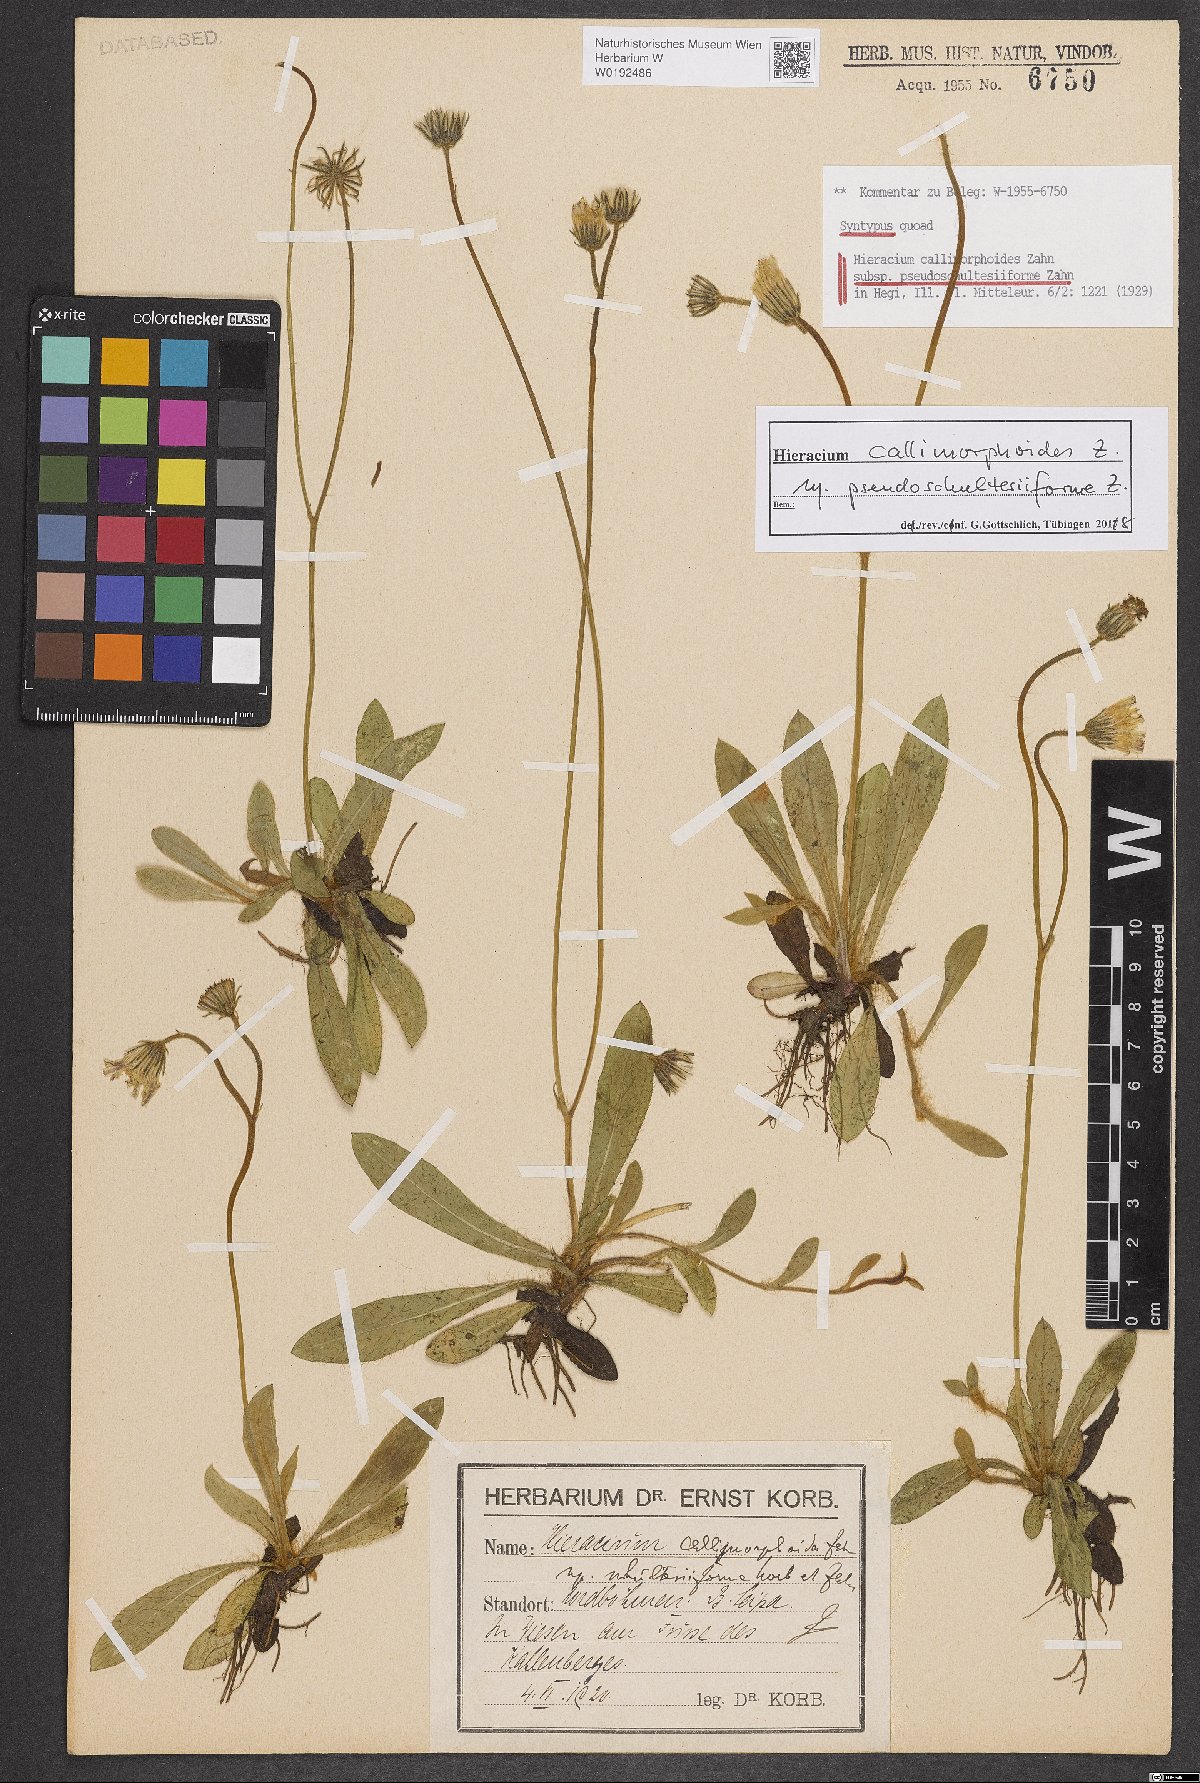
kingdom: Plantae
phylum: Tracheophyta
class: Magnoliopsida
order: Asterales
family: Asteraceae
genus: Pilosella
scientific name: Pilosella piloselliflora
